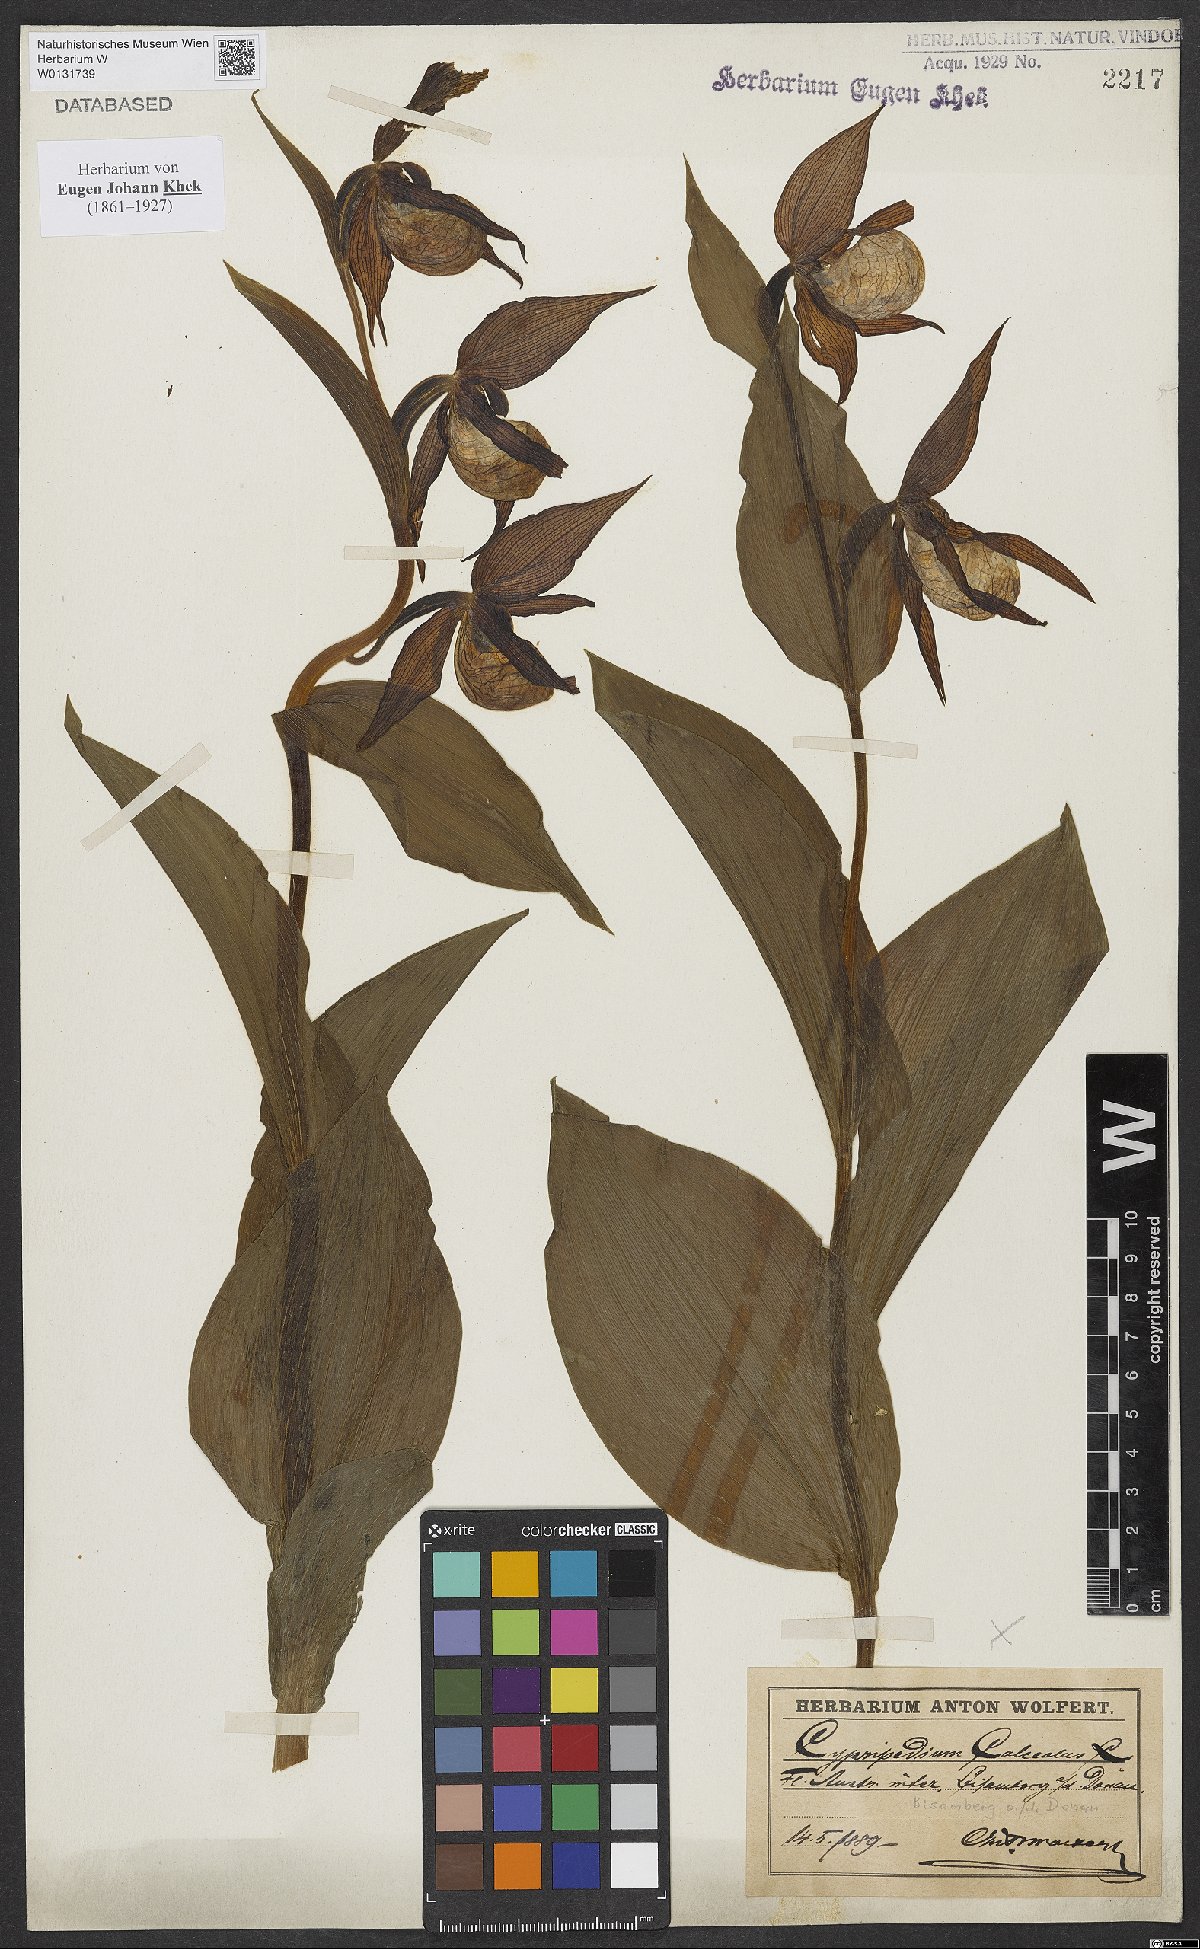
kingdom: Plantae
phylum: Tracheophyta
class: Liliopsida
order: Asparagales
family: Orchidaceae
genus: Cypripedium
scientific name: Cypripedium calceolus
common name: Lady's-slipper
